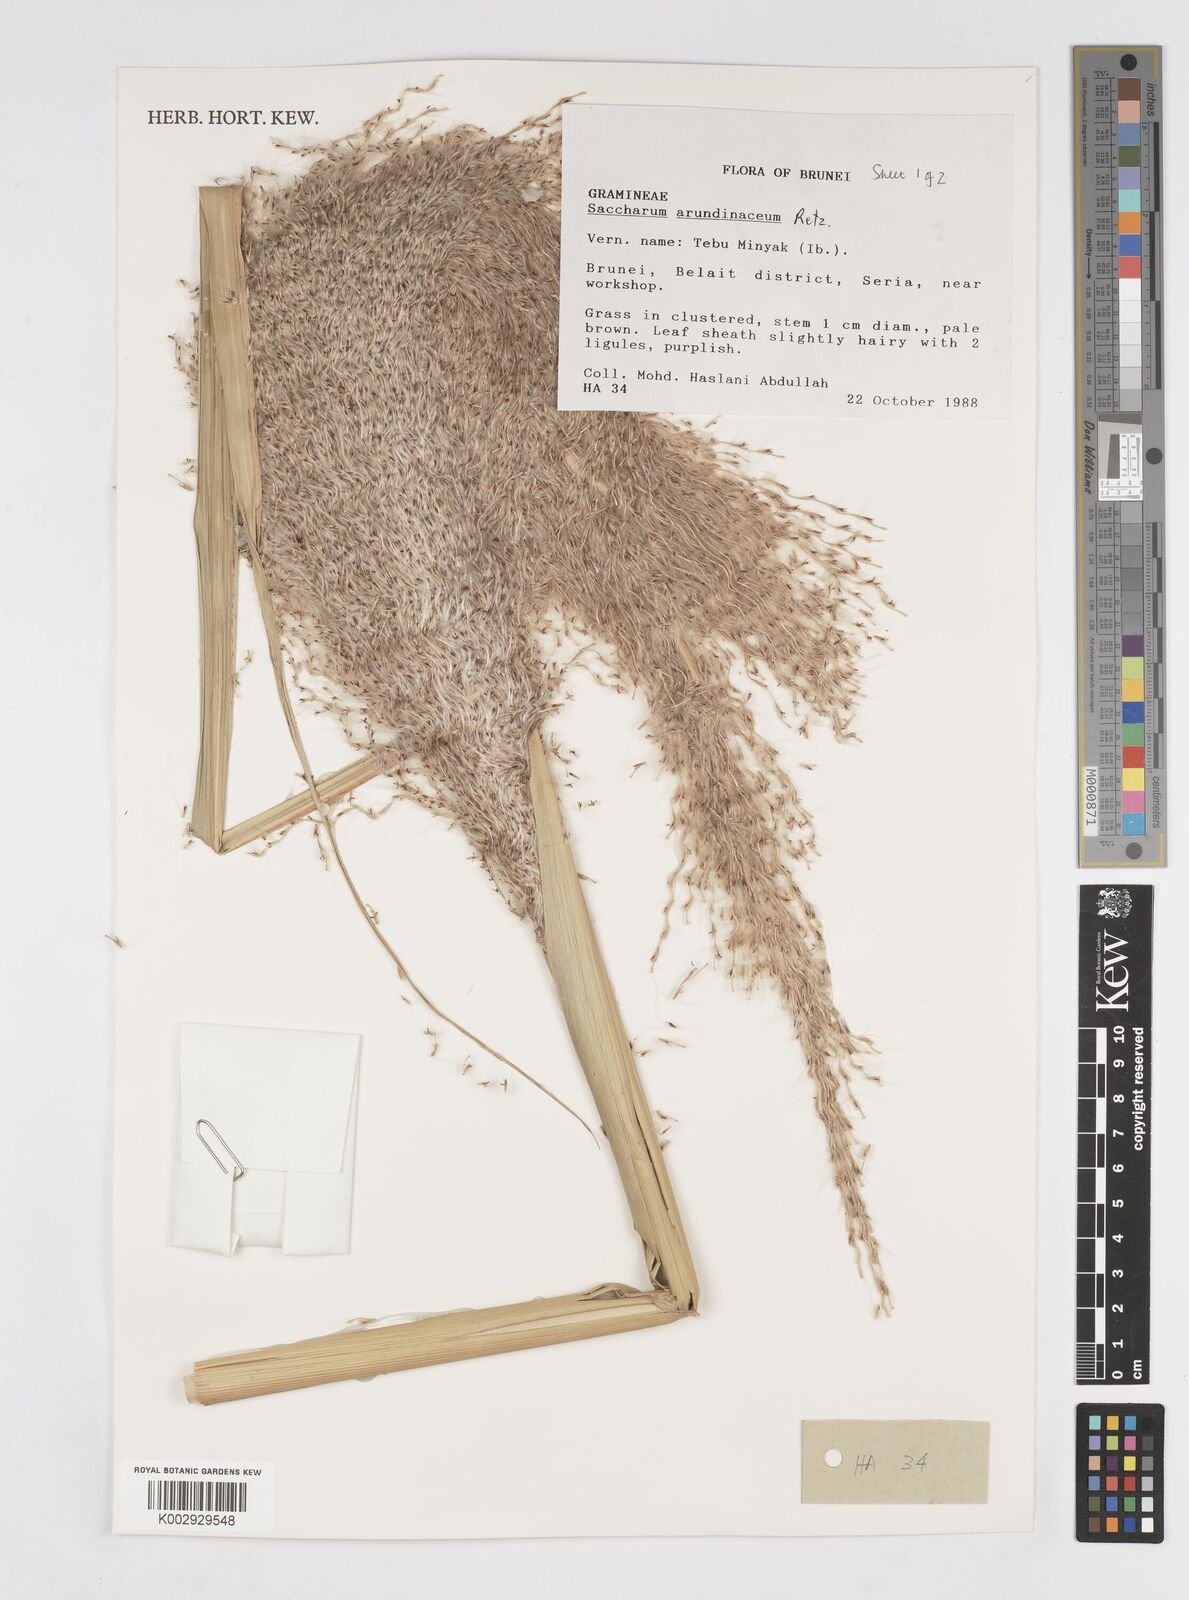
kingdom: Plantae
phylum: Tracheophyta
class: Liliopsida
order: Poales
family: Poaceae
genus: Tripidium
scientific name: Tripidium arundinaceum
